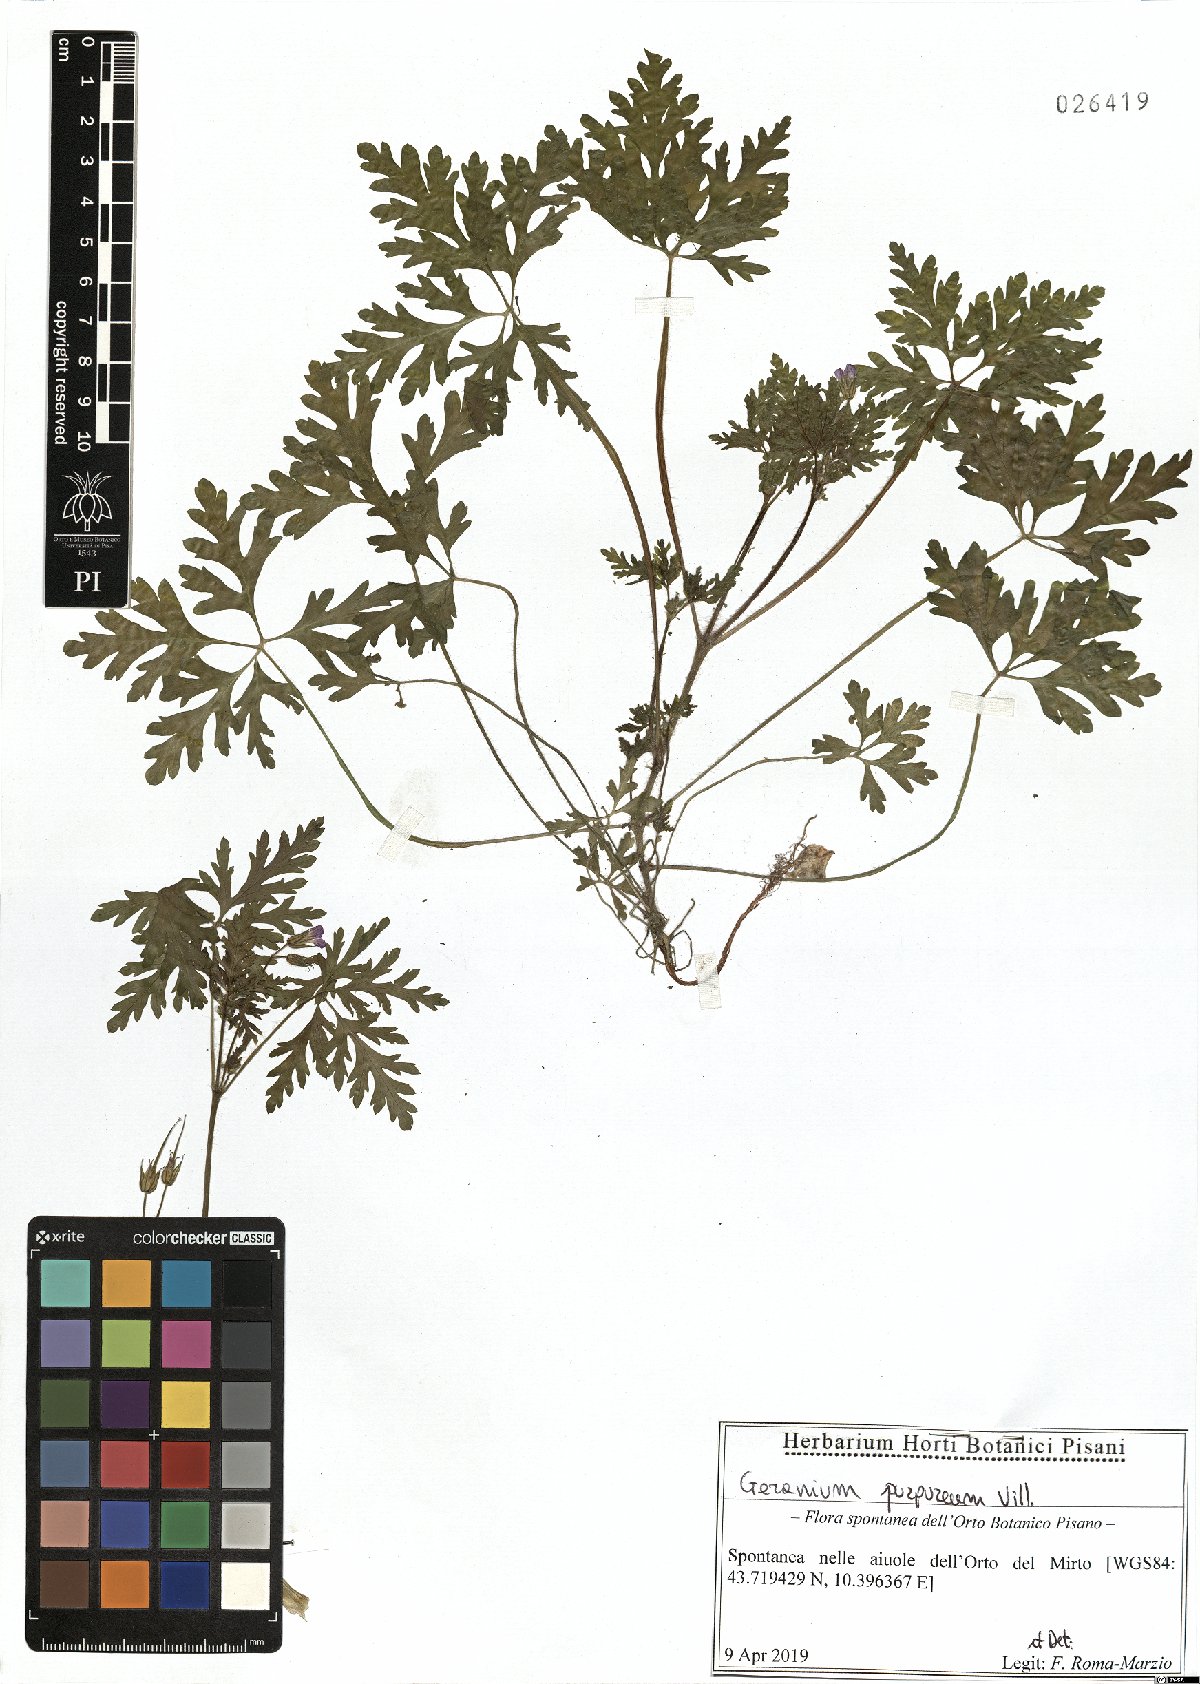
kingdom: Plantae
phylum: Tracheophyta
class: Magnoliopsida
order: Geraniales
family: Geraniaceae
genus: Geranium
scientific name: Geranium purpureum
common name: Little-robin
